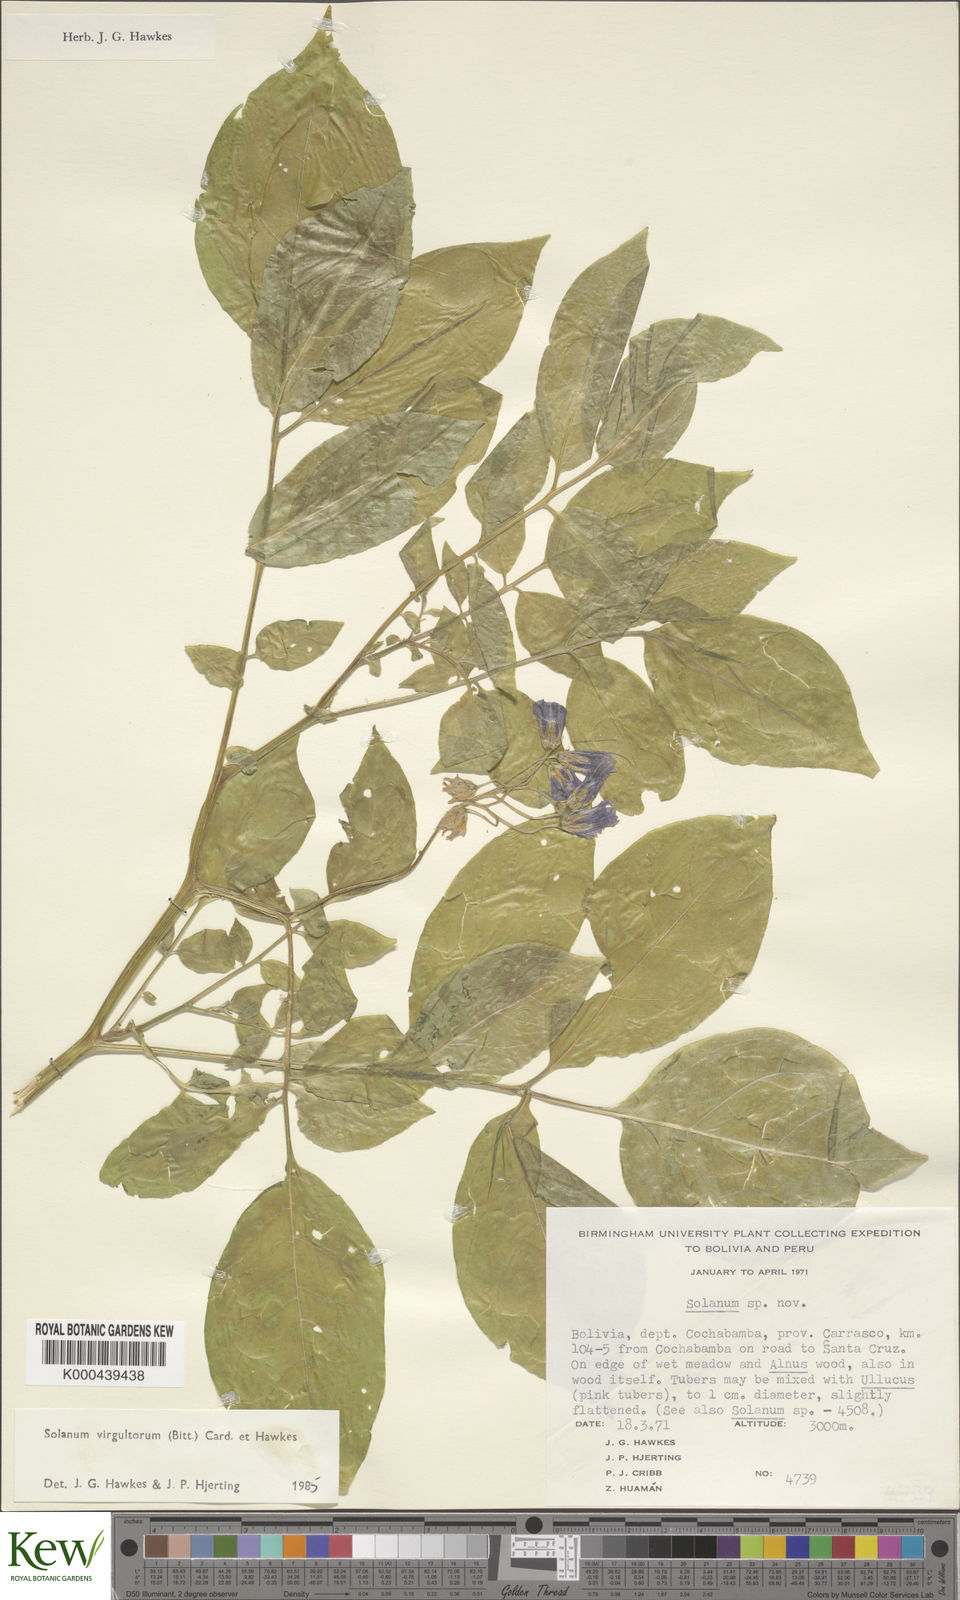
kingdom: Plantae
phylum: Tracheophyta
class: Magnoliopsida
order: Solanales
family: Solanaceae
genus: Solanum
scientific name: Solanum brevicaule
